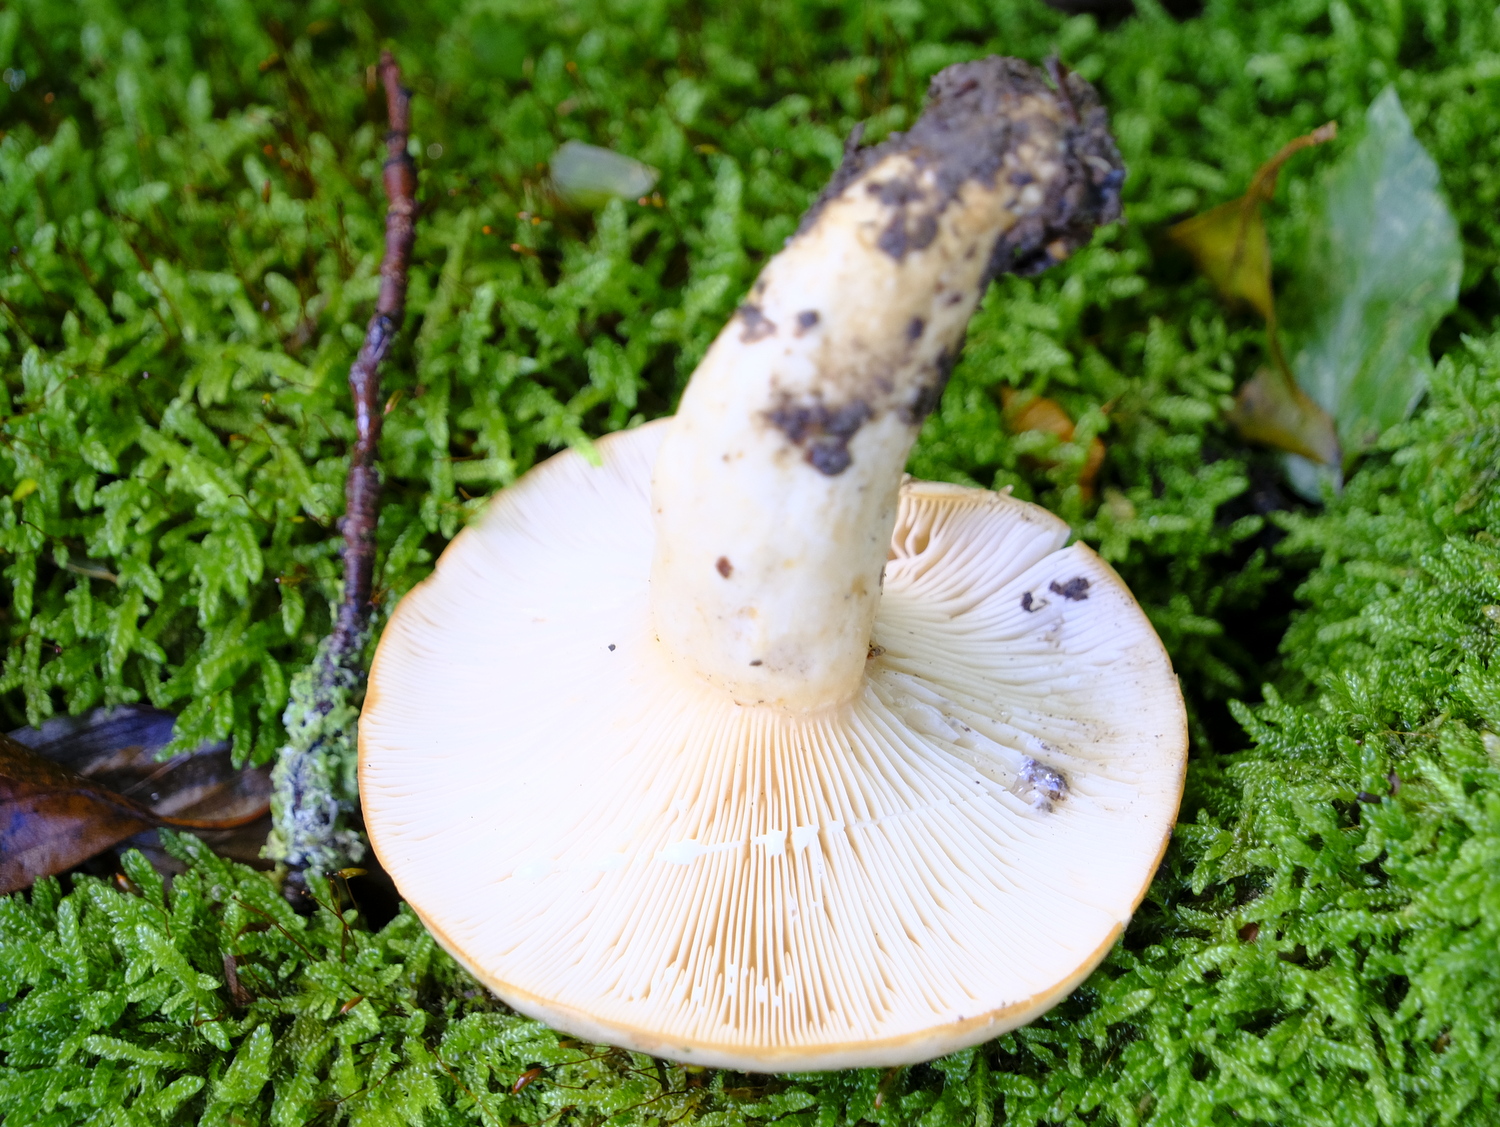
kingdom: Fungi
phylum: Basidiomycota
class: Agaricomycetes
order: Russulales
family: Russulaceae
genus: Lactarius
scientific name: Lactarius pallidus
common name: bleg mælkehat
